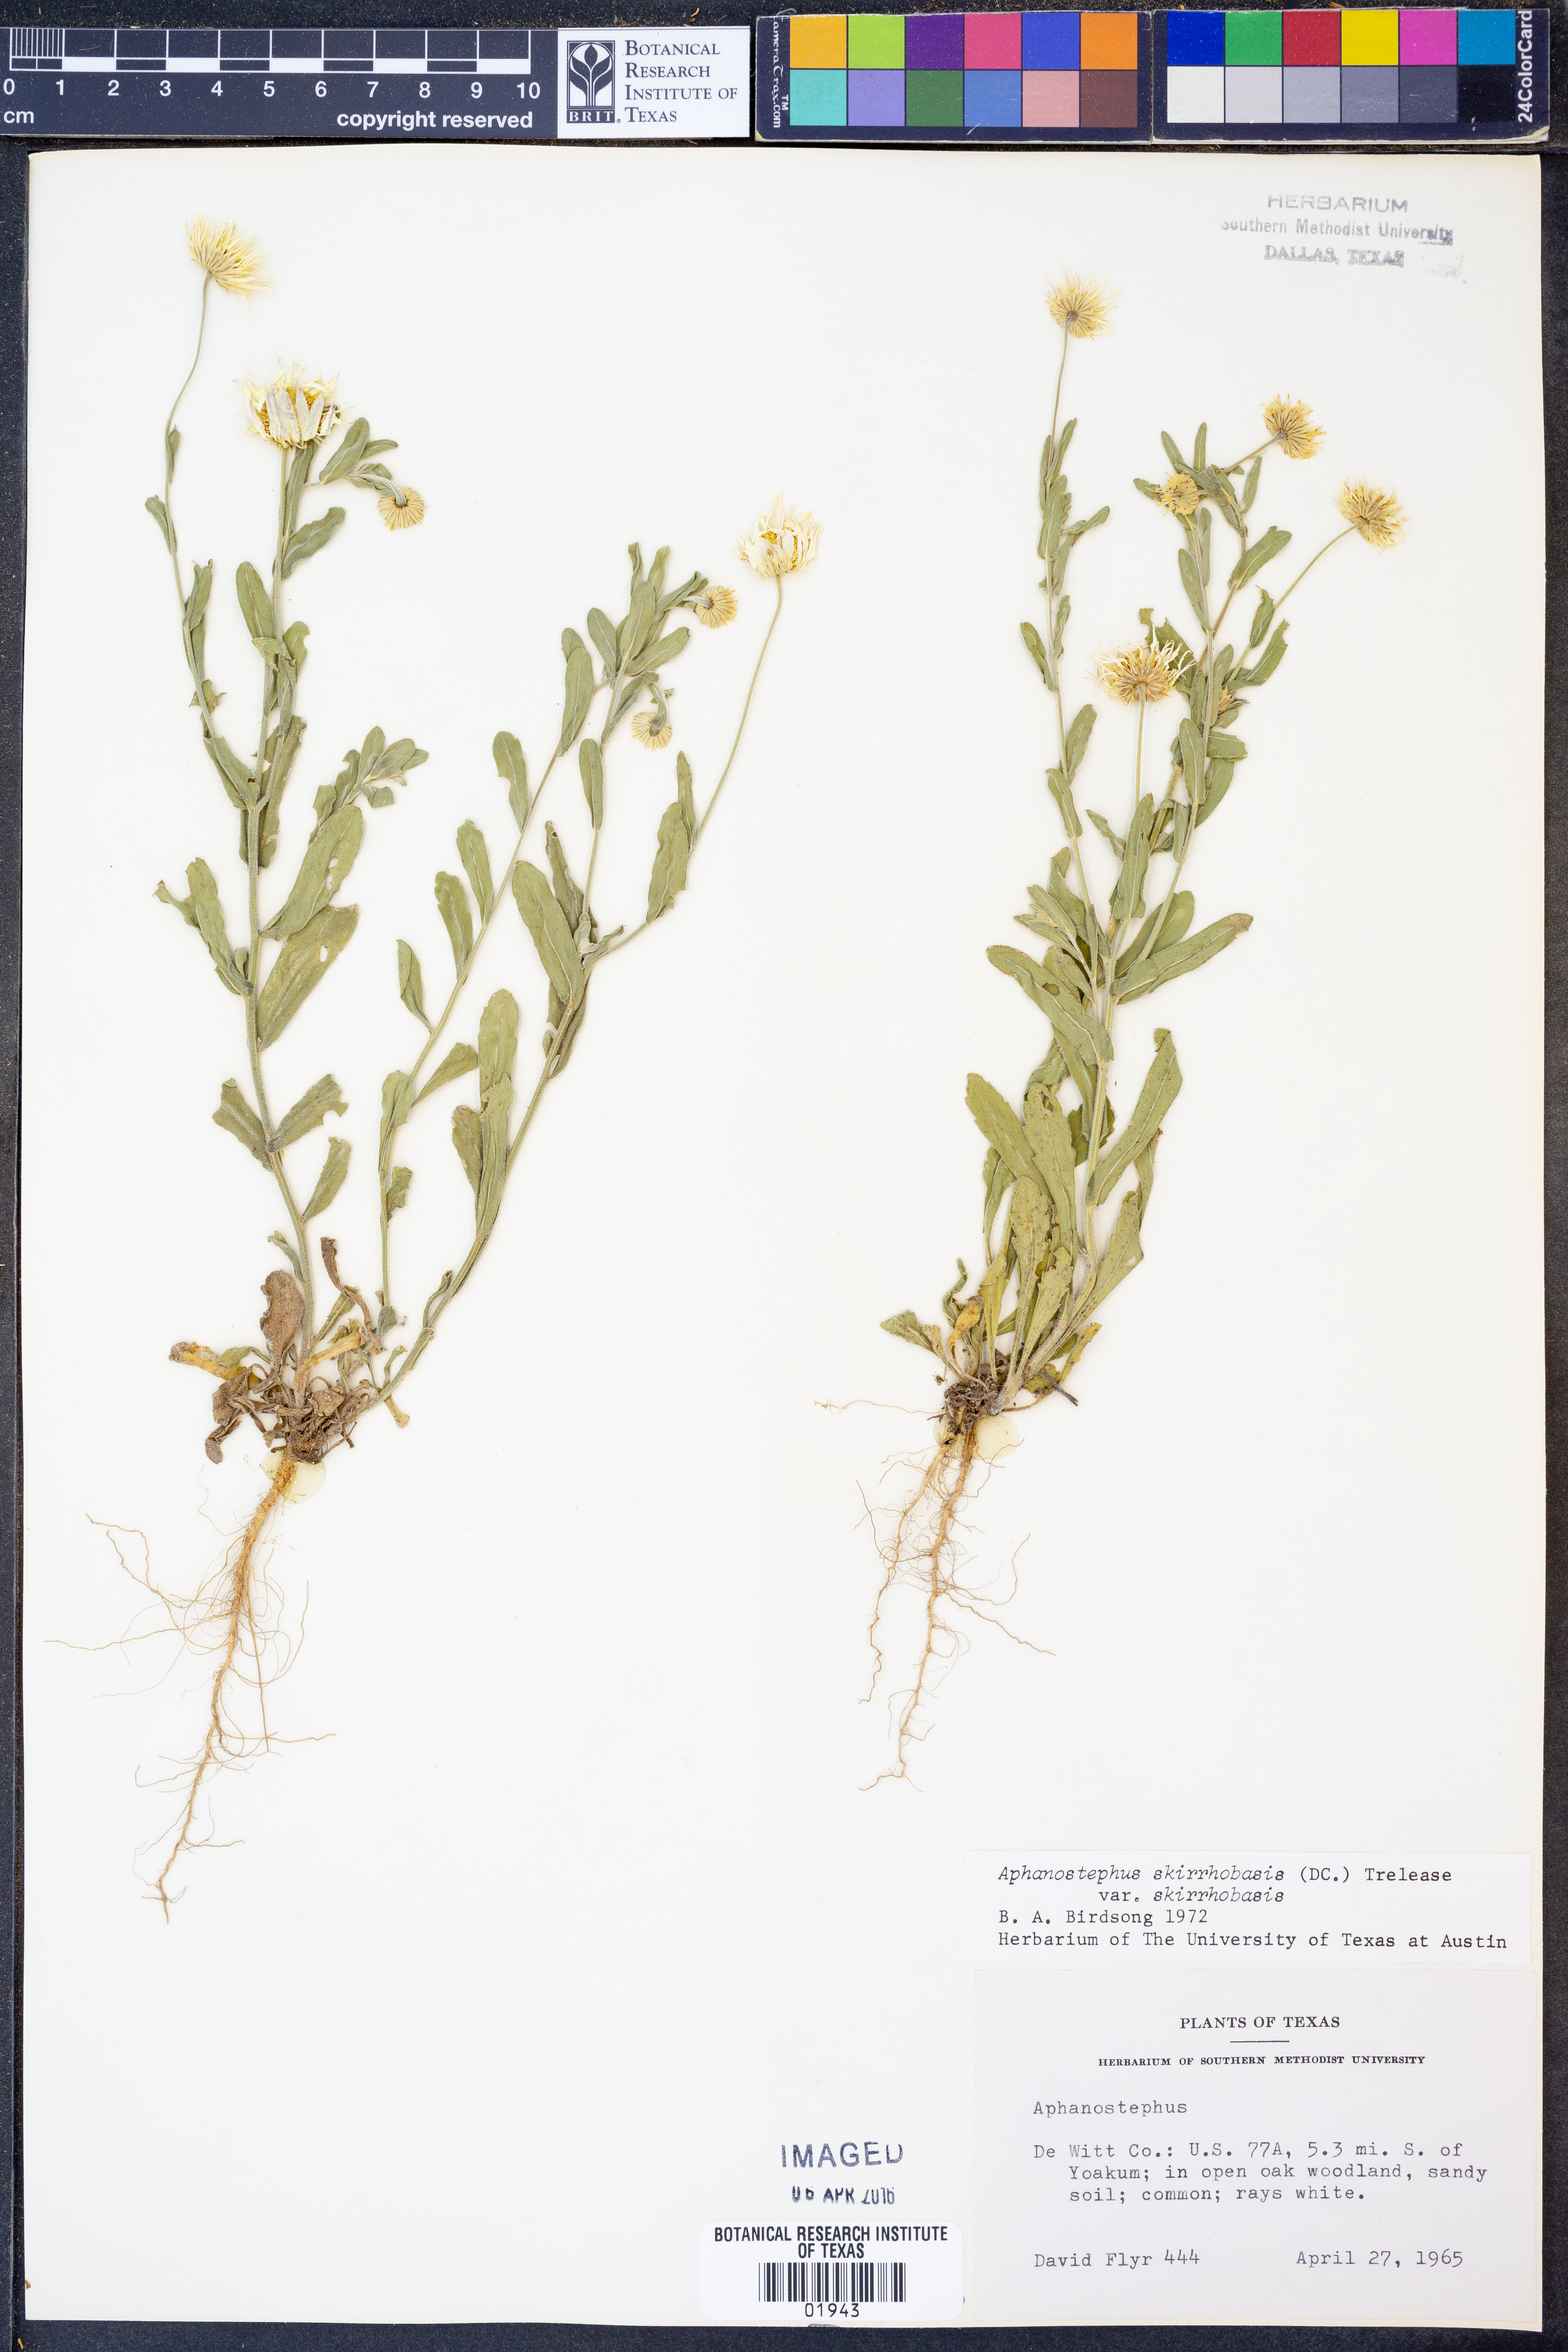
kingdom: Plantae
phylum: Tracheophyta
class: Magnoliopsida
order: Asterales
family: Asteraceae
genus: Aphanostephus
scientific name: Aphanostephus skirrhobasis
